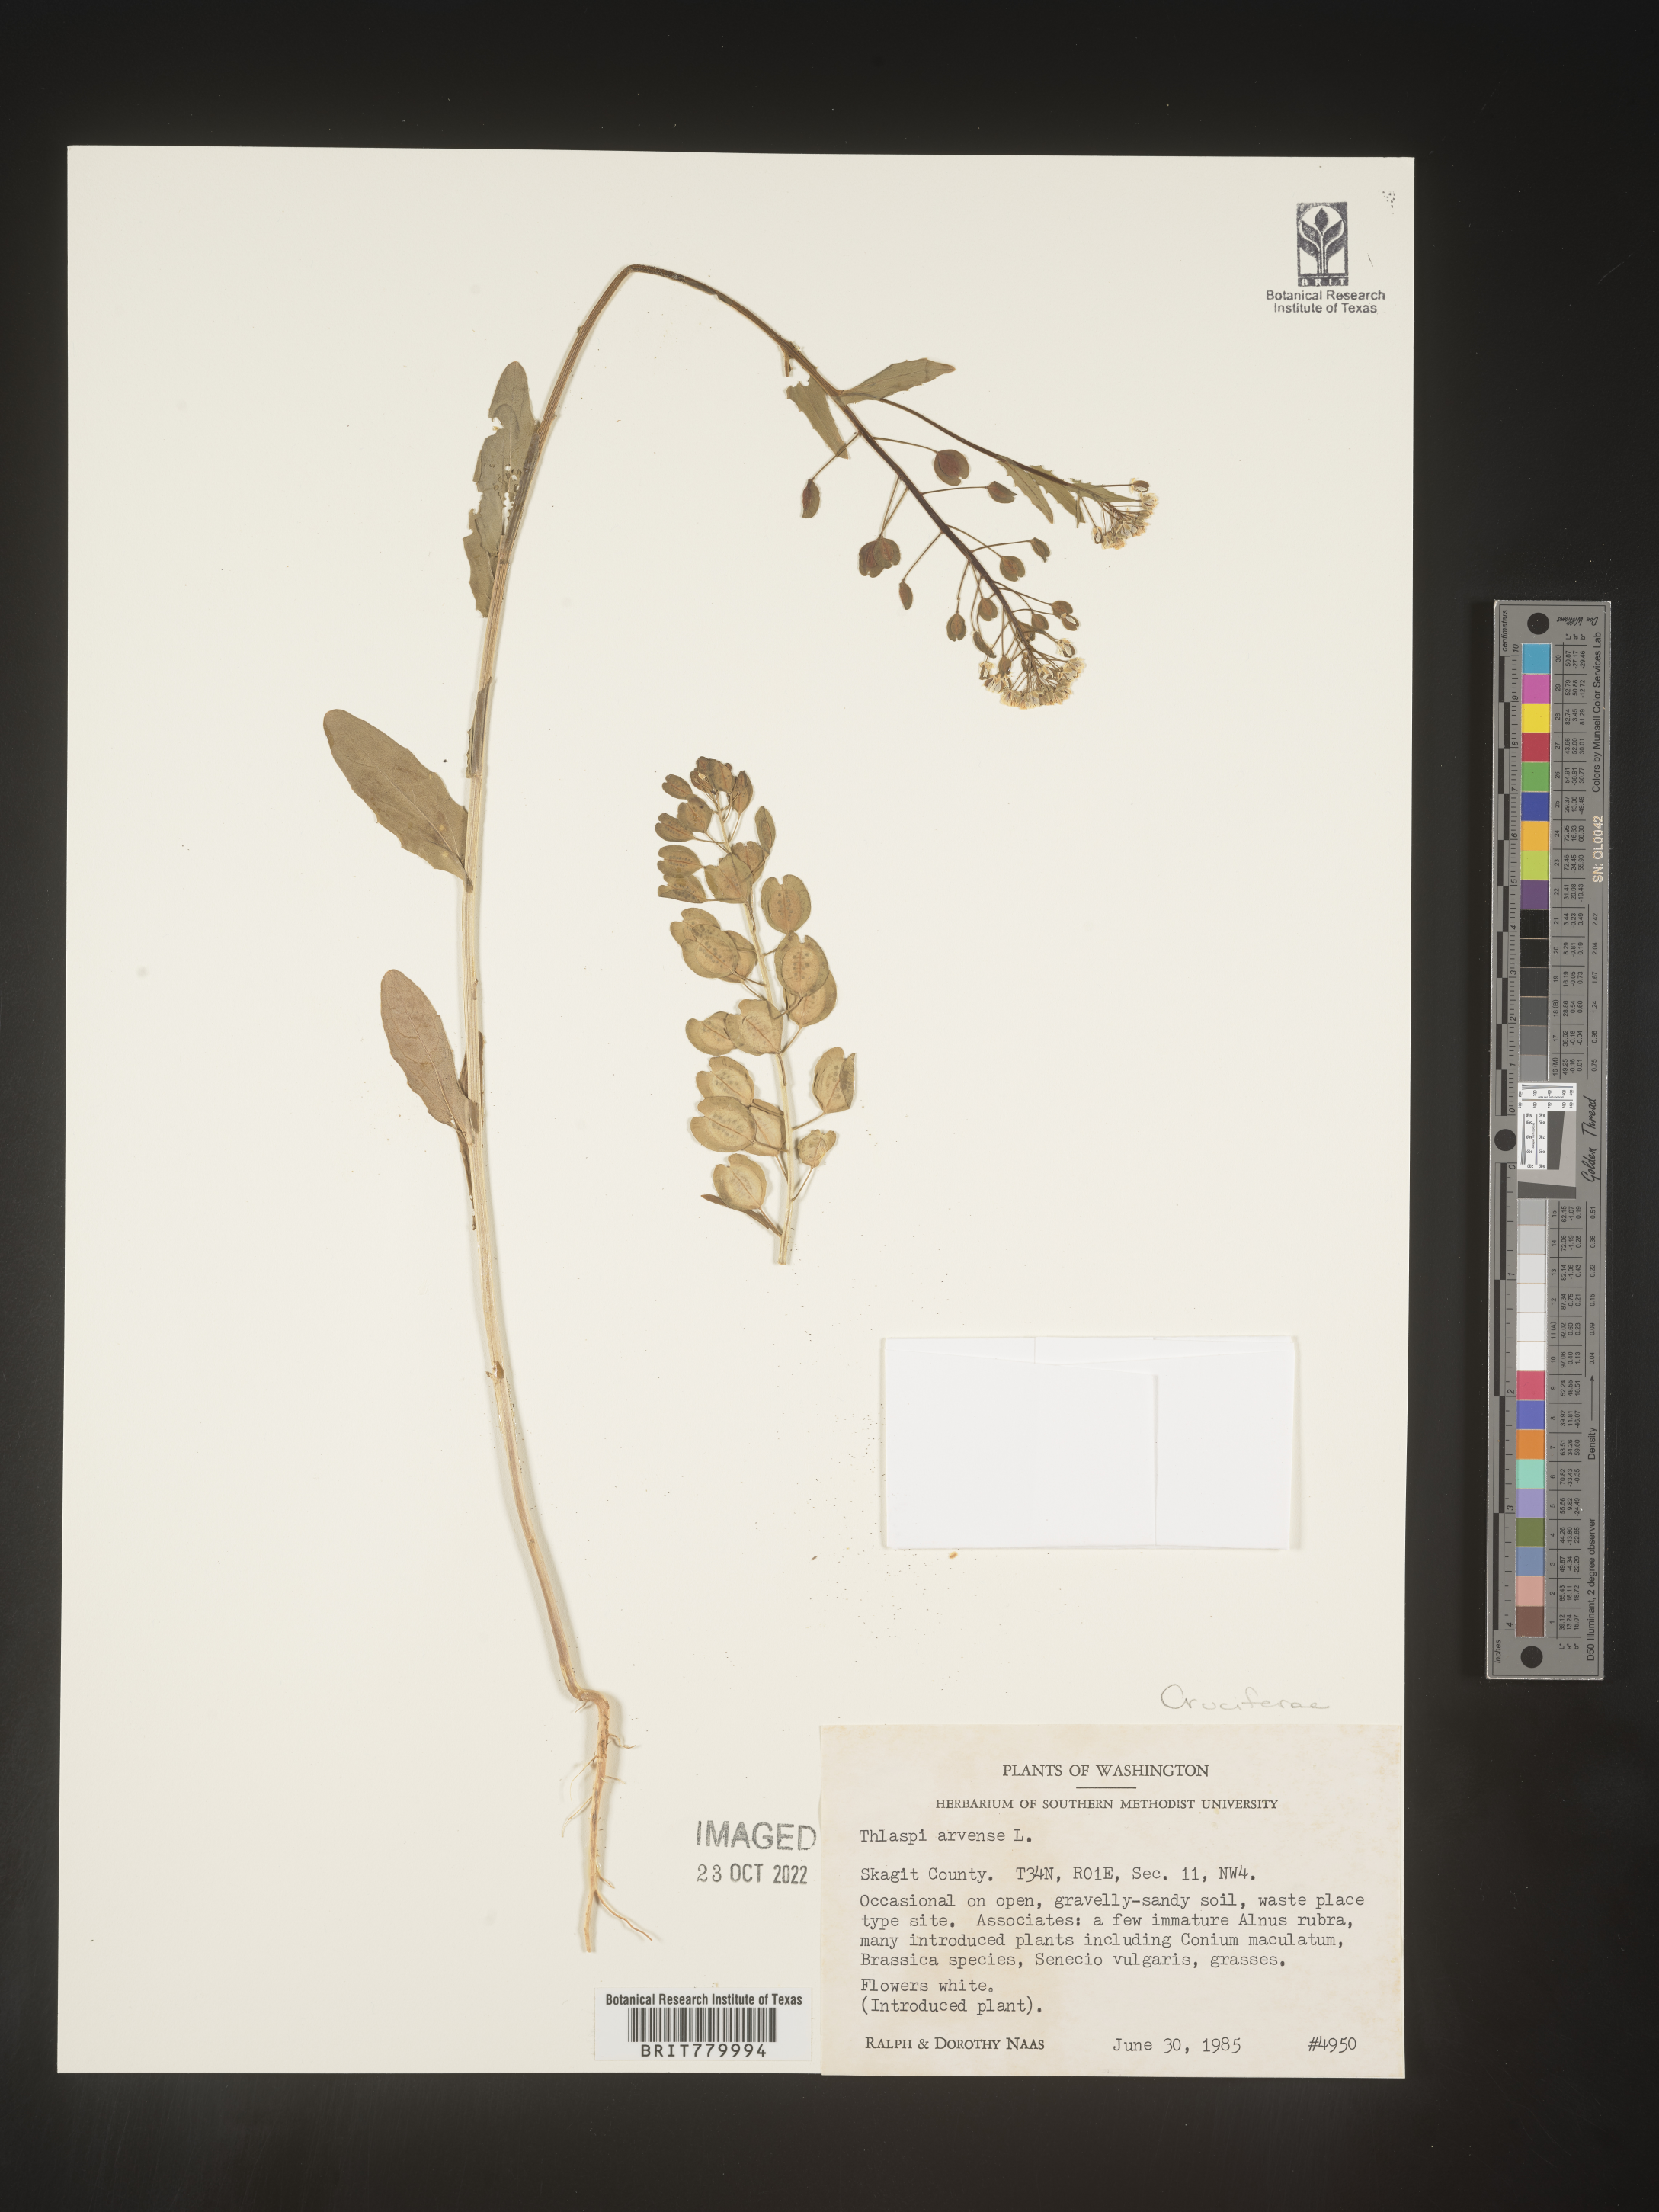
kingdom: Plantae
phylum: Tracheophyta
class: Magnoliopsida
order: Brassicales
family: Brassicaceae
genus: Thlaspi
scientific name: Thlaspi arvense
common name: Field pennycress
